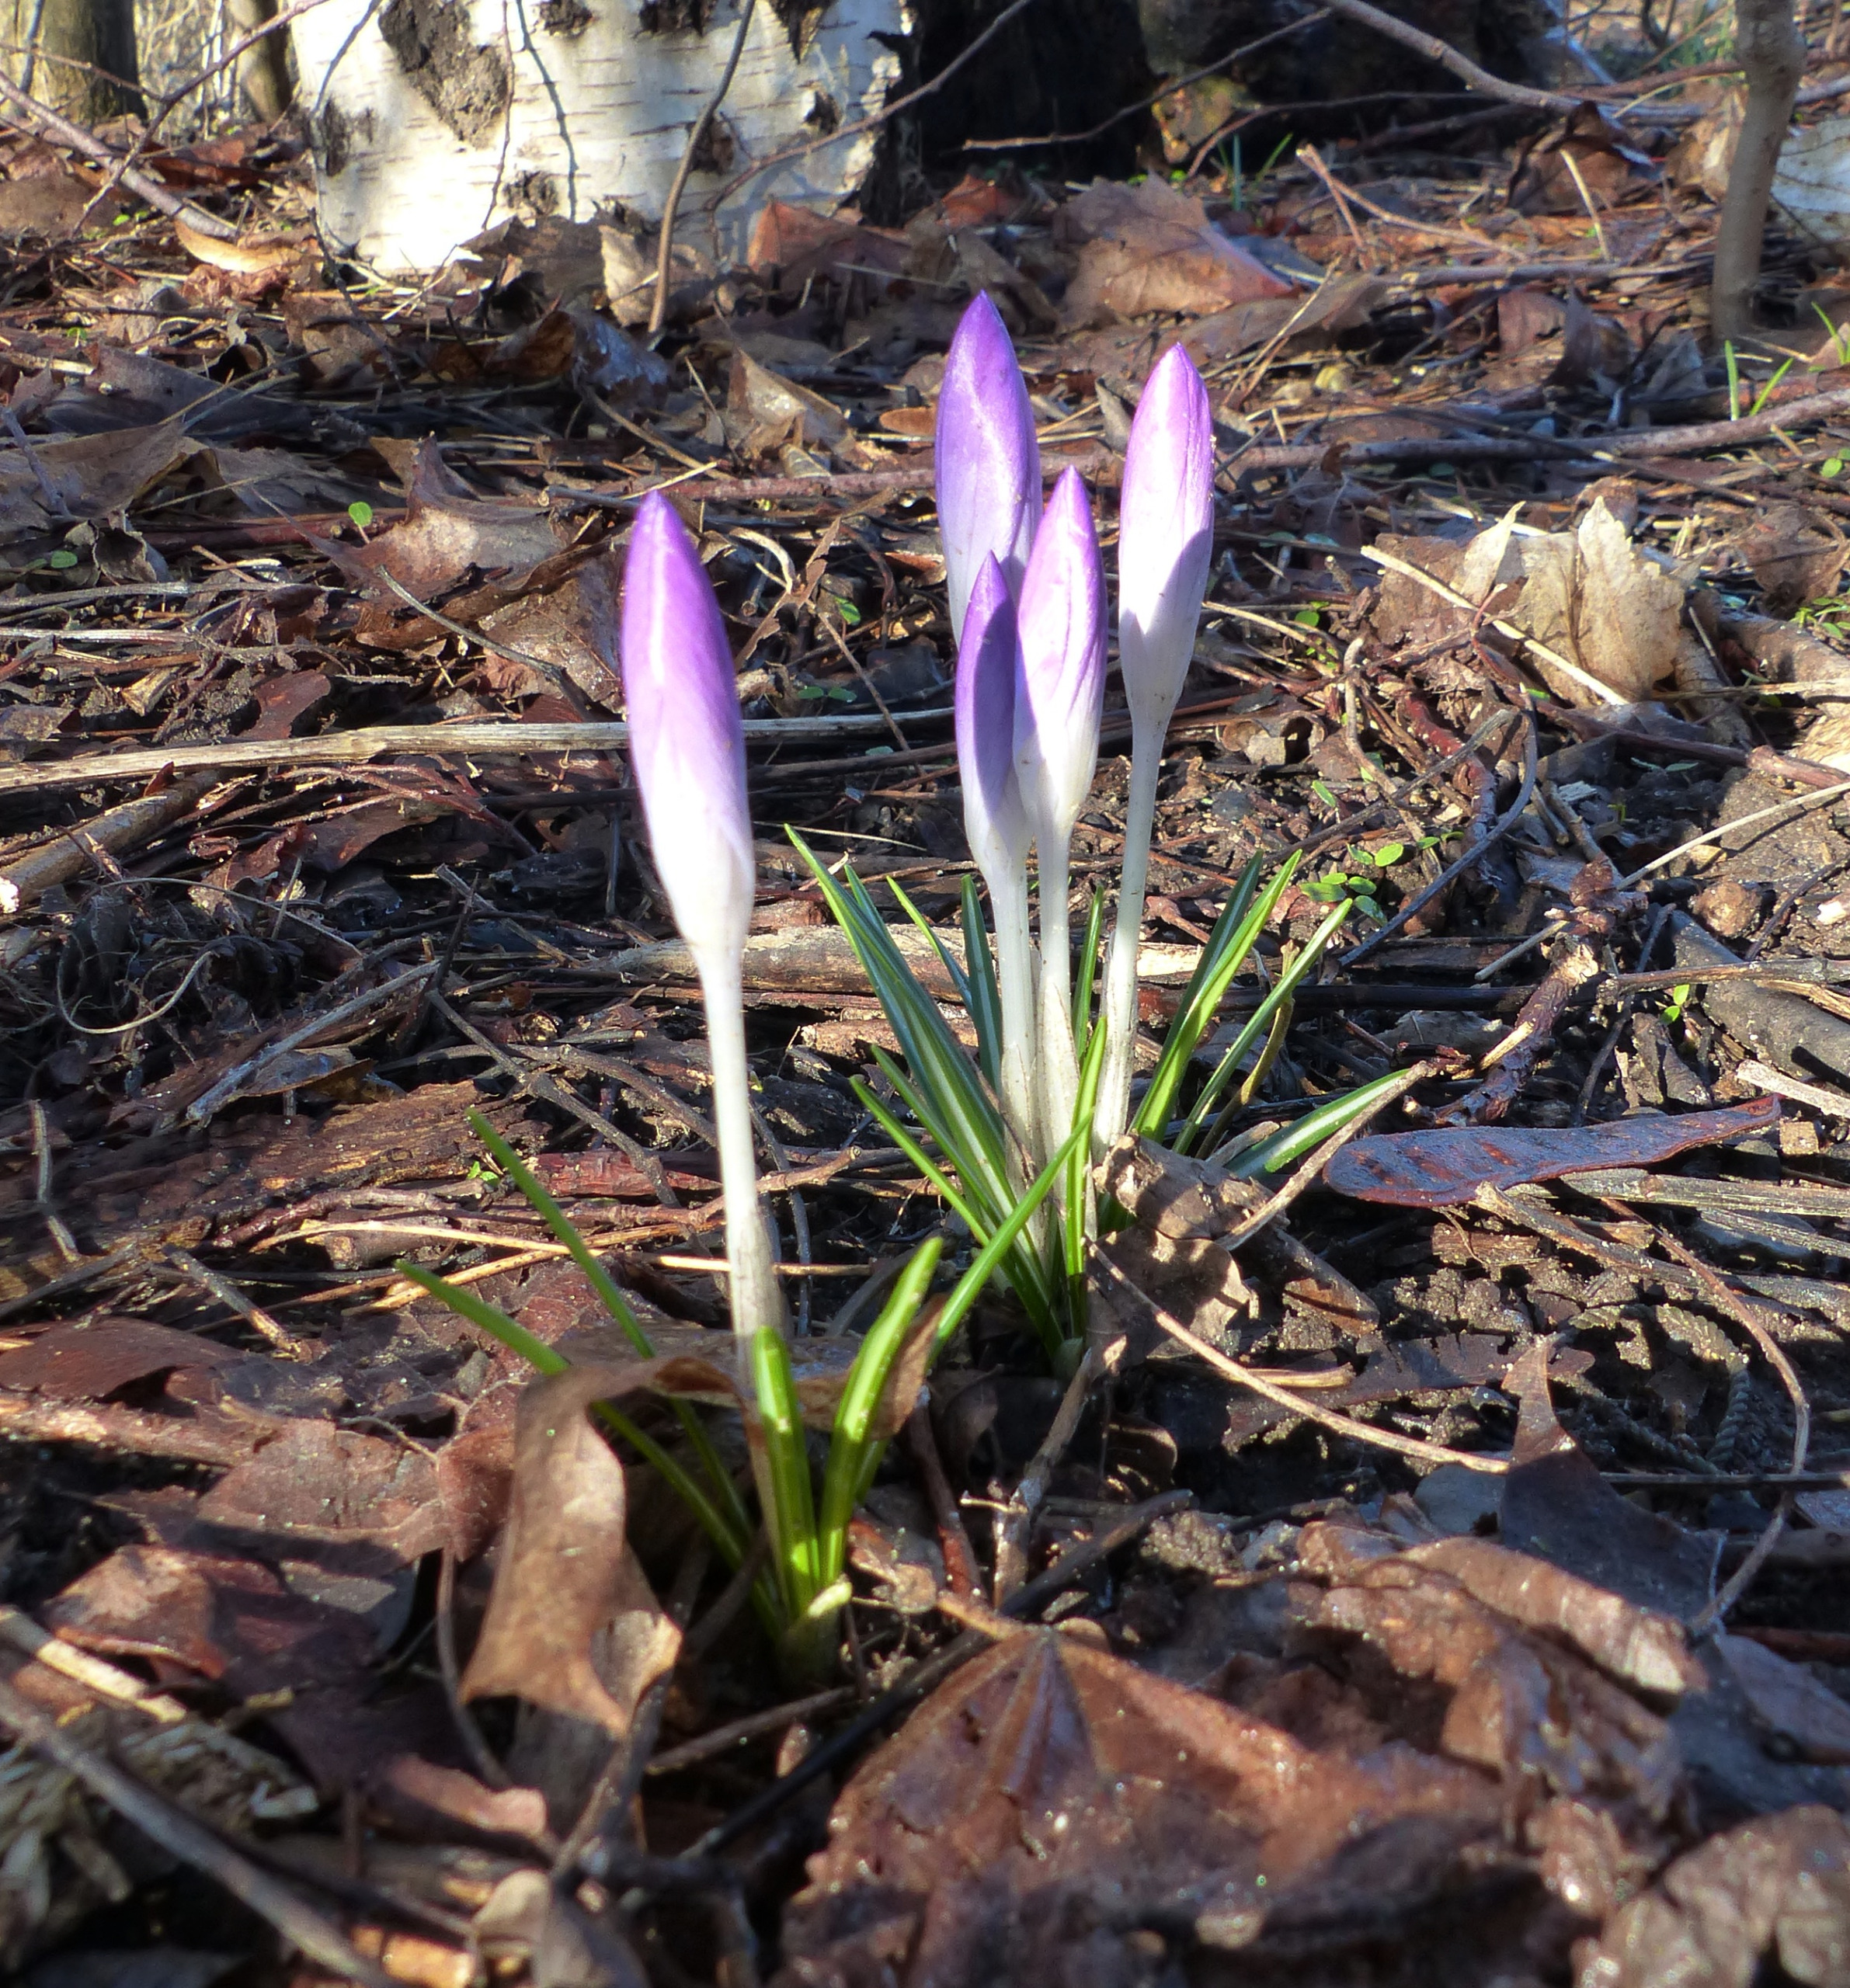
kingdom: Plantae
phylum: Tracheophyta
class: Liliopsida
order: Asparagales
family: Iridaceae
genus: Crocus
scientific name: Crocus tommasinianus
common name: Sne-krokus
